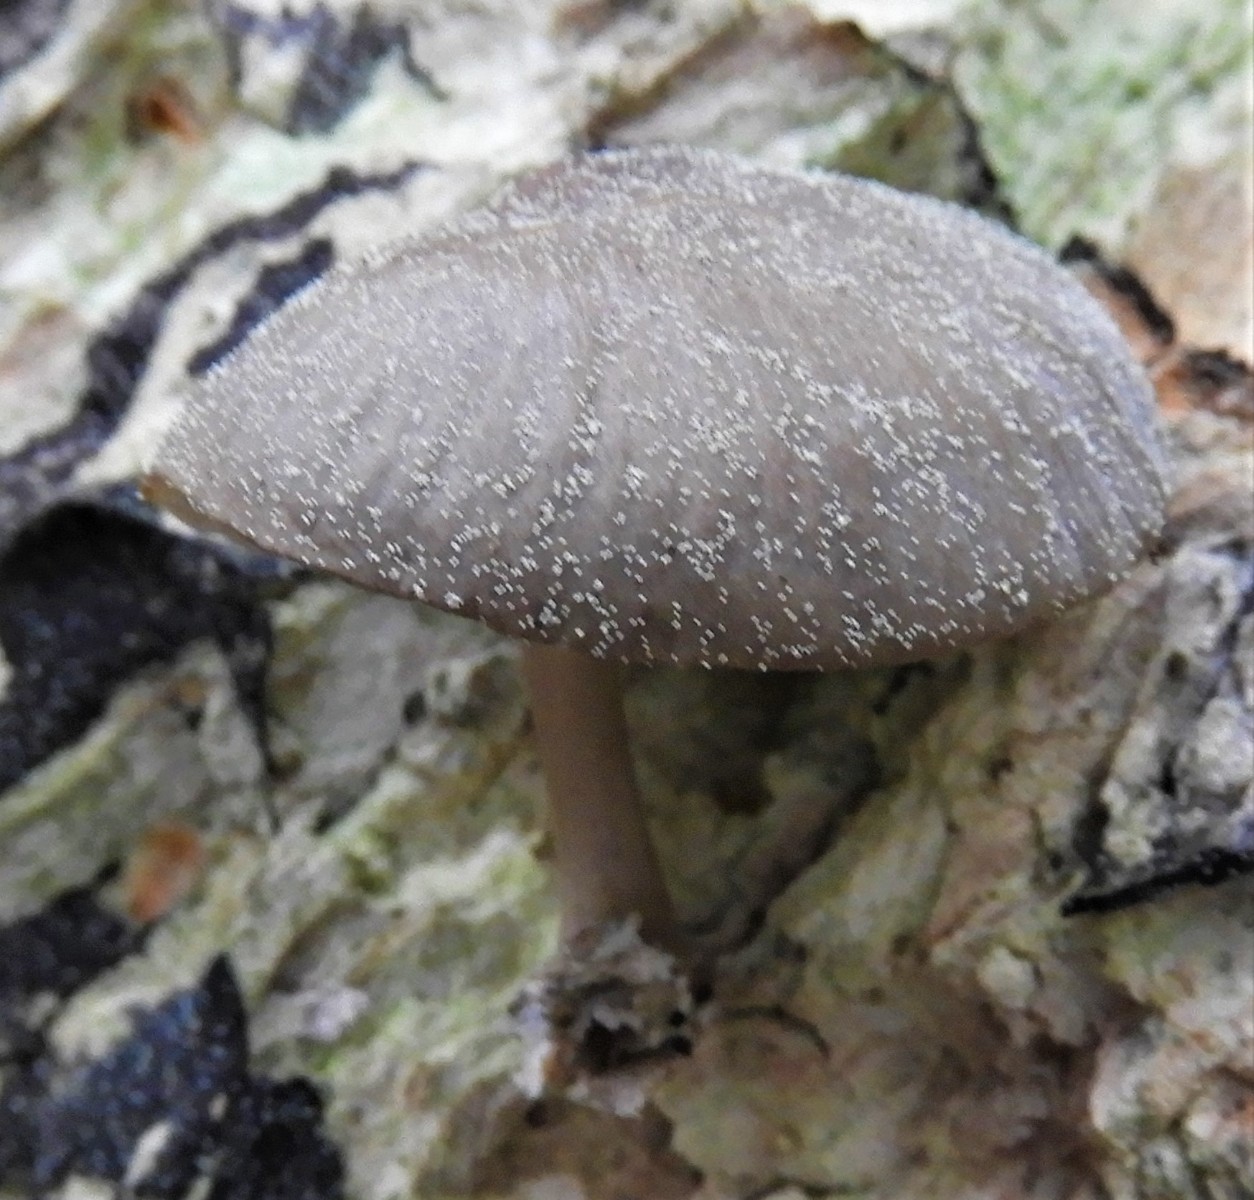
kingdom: Fungi
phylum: Basidiomycota
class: Agaricomycetes
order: Agaricales
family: Mycenaceae
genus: Mycena
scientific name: Mycena
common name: huesvamp
